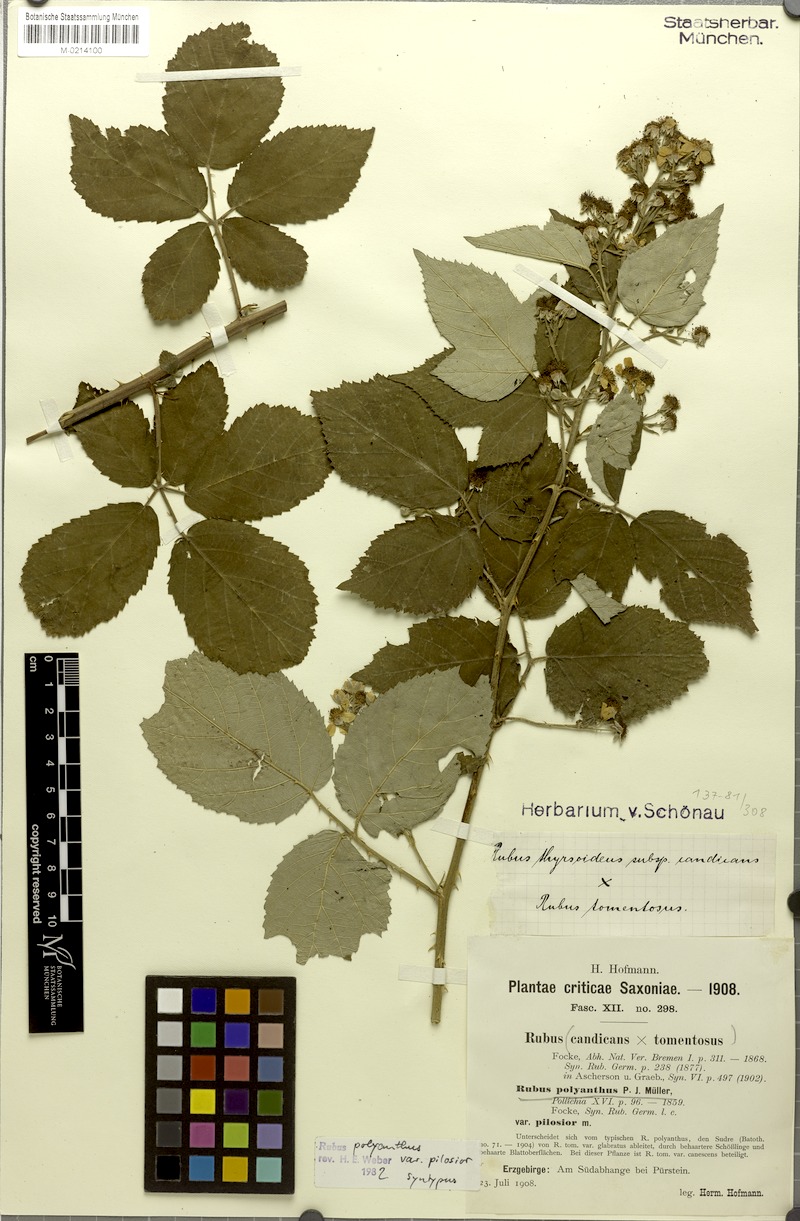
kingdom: Plantae
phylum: Tracheophyta
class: Magnoliopsida
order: Rosales
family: Rosaceae
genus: Rubus
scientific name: Rubus polyanthus
